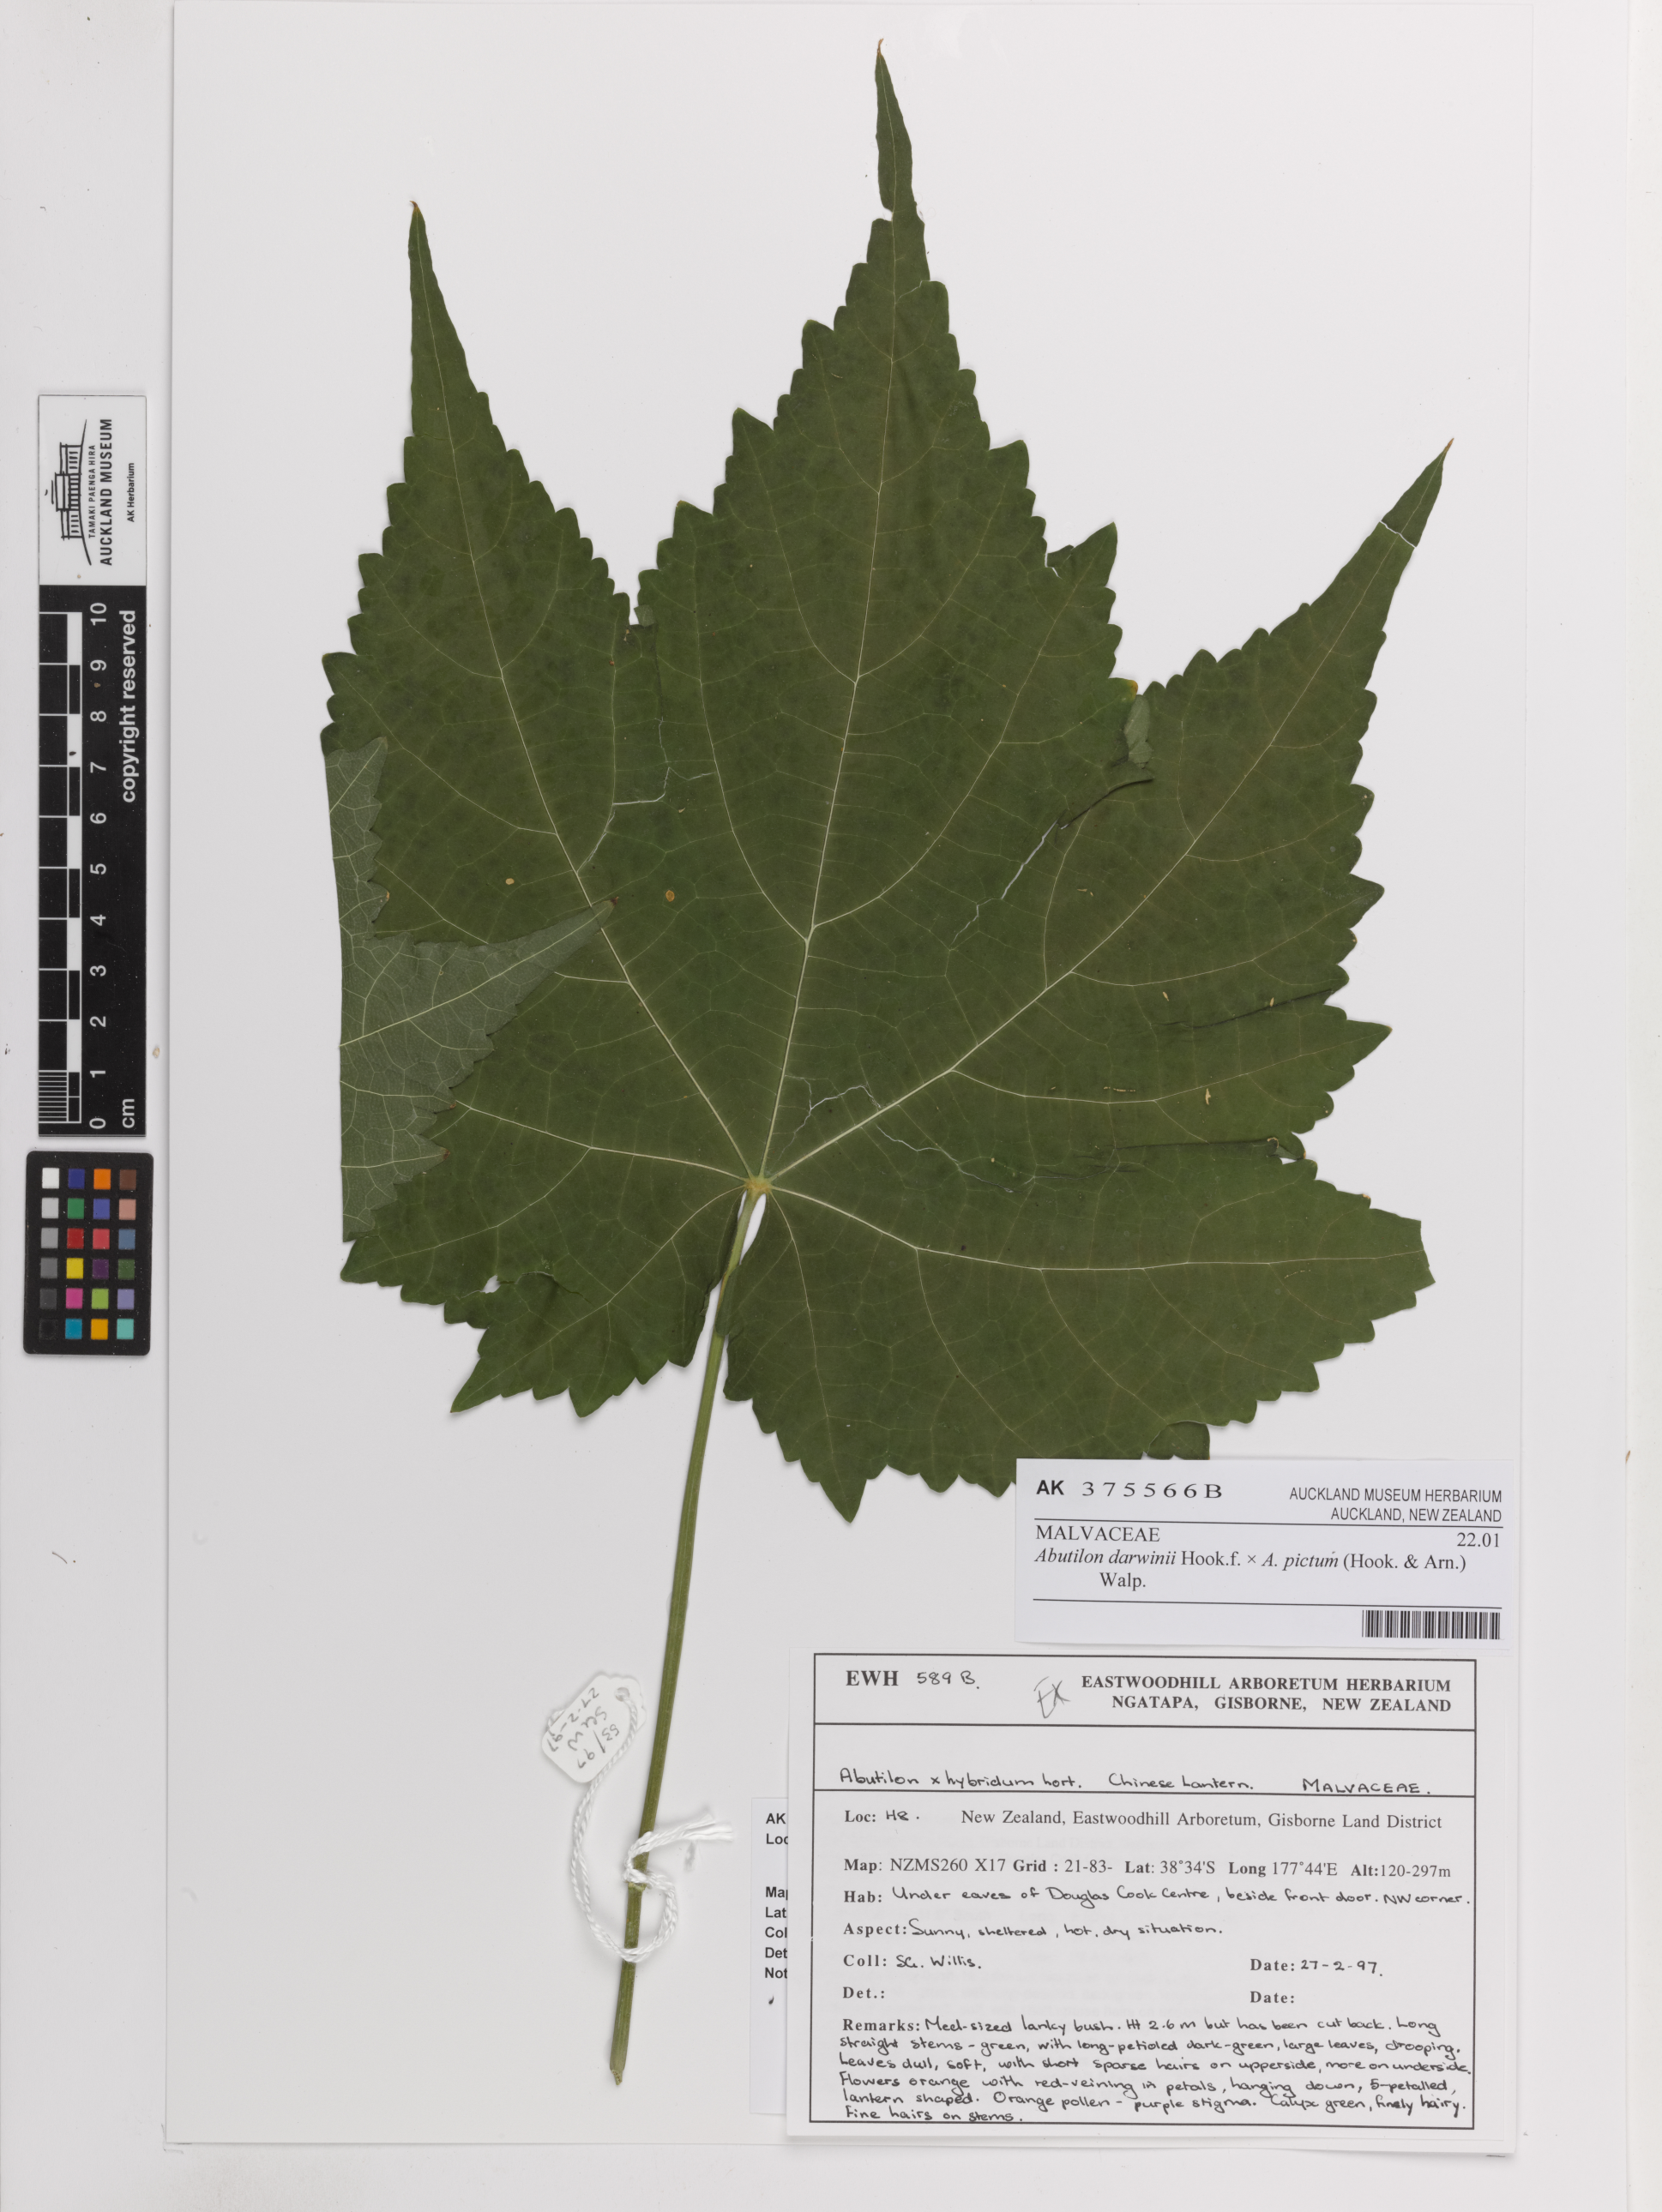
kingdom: Plantae
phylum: Tracheophyta
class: Magnoliopsida
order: Malvales
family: Malvaceae
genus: Abutilon
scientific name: Abutilon
